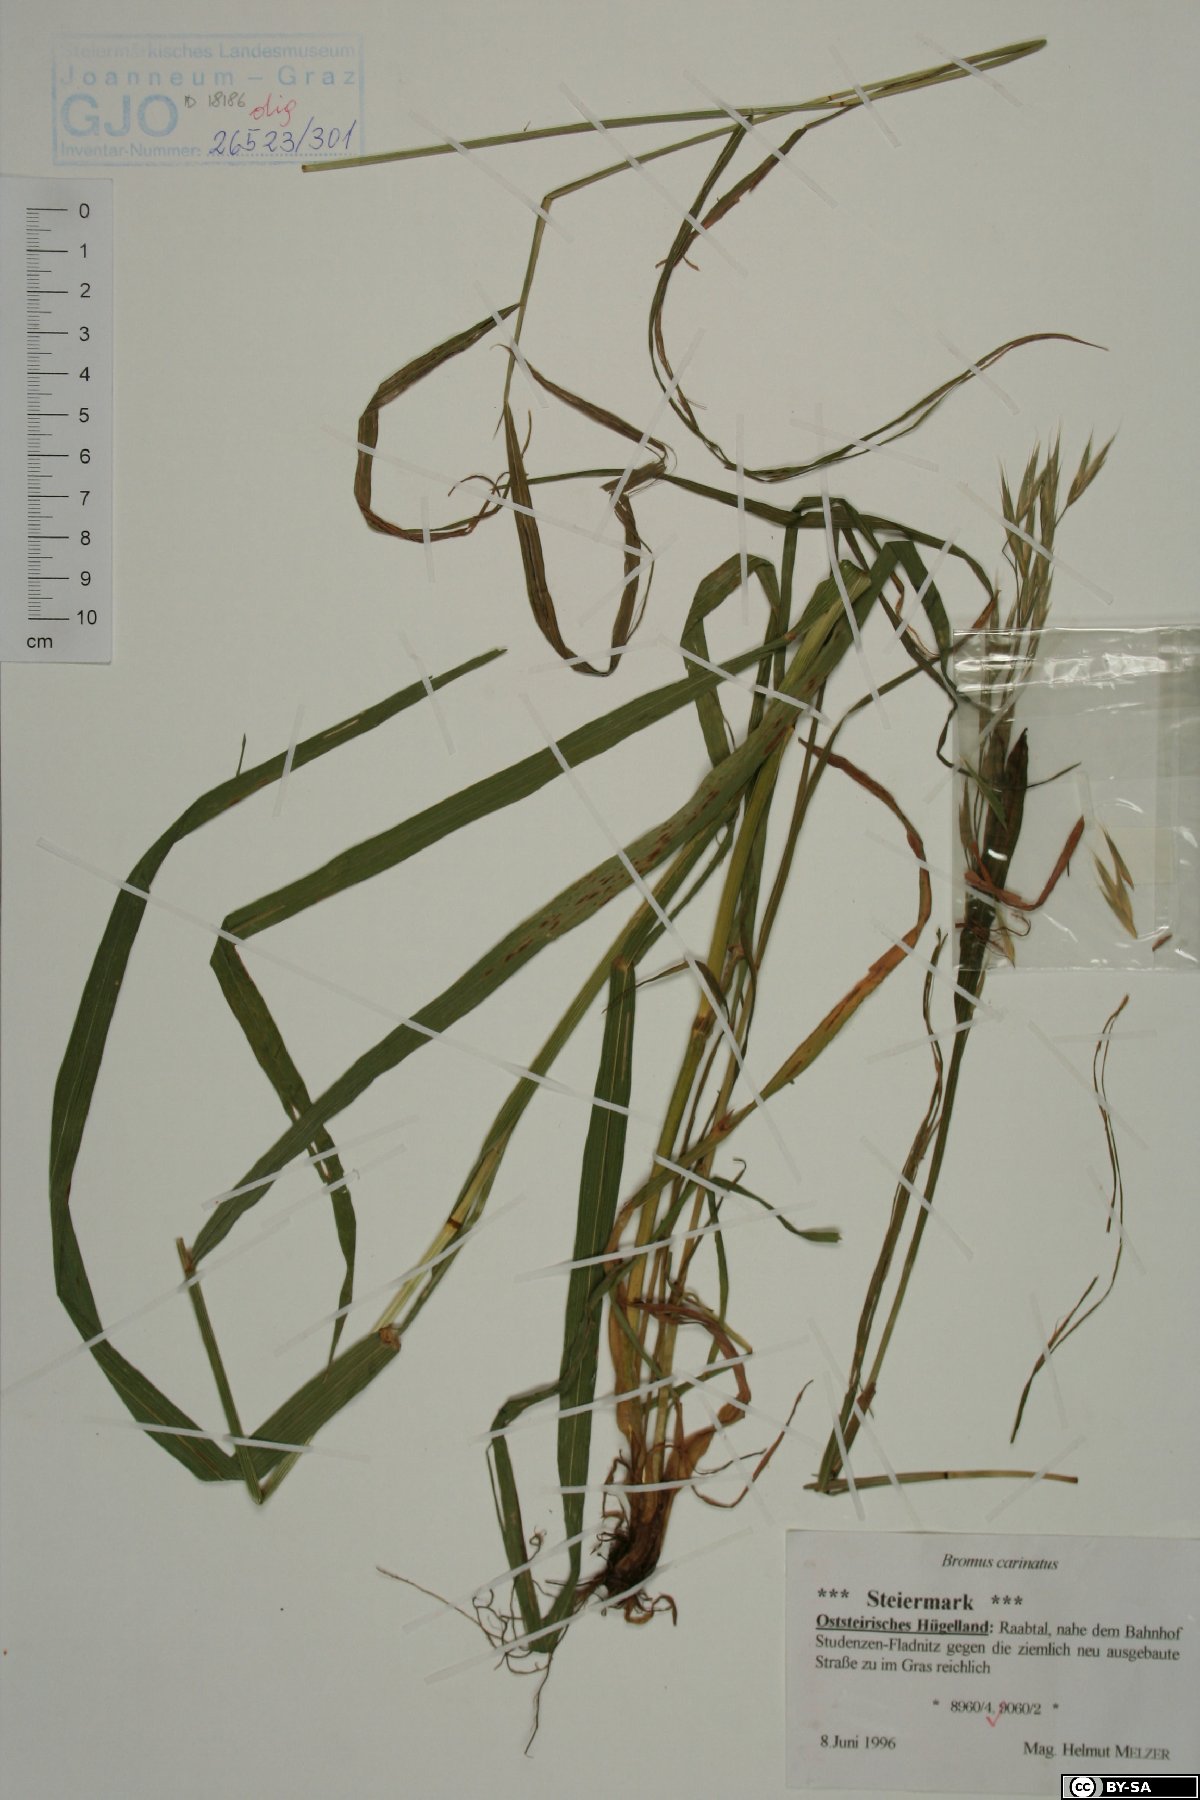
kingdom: Plantae
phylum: Tracheophyta
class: Liliopsida
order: Poales
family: Poaceae
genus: Bromus
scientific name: Bromus carinatus
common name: Mountain brome
